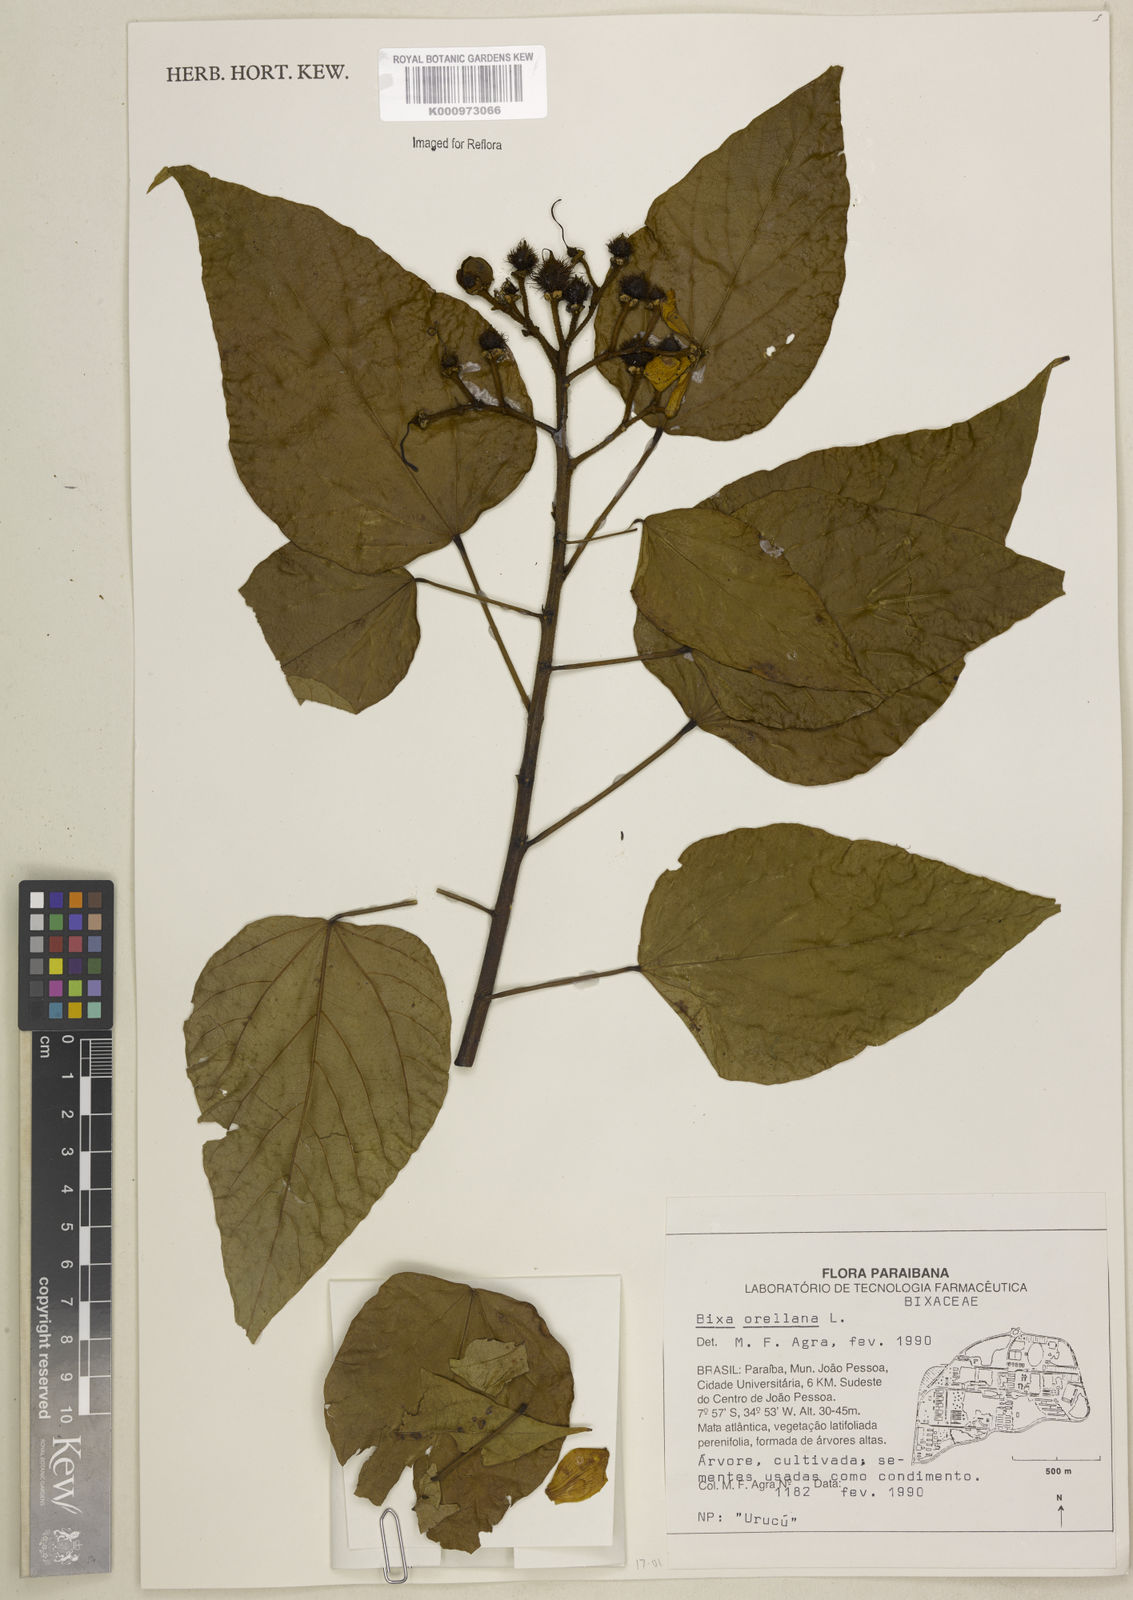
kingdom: Plantae
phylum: Tracheophyta
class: Magnoliopsida
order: Malvales
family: Bixaceae
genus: Bixa
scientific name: Bixa orellana
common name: Lipsticktree
